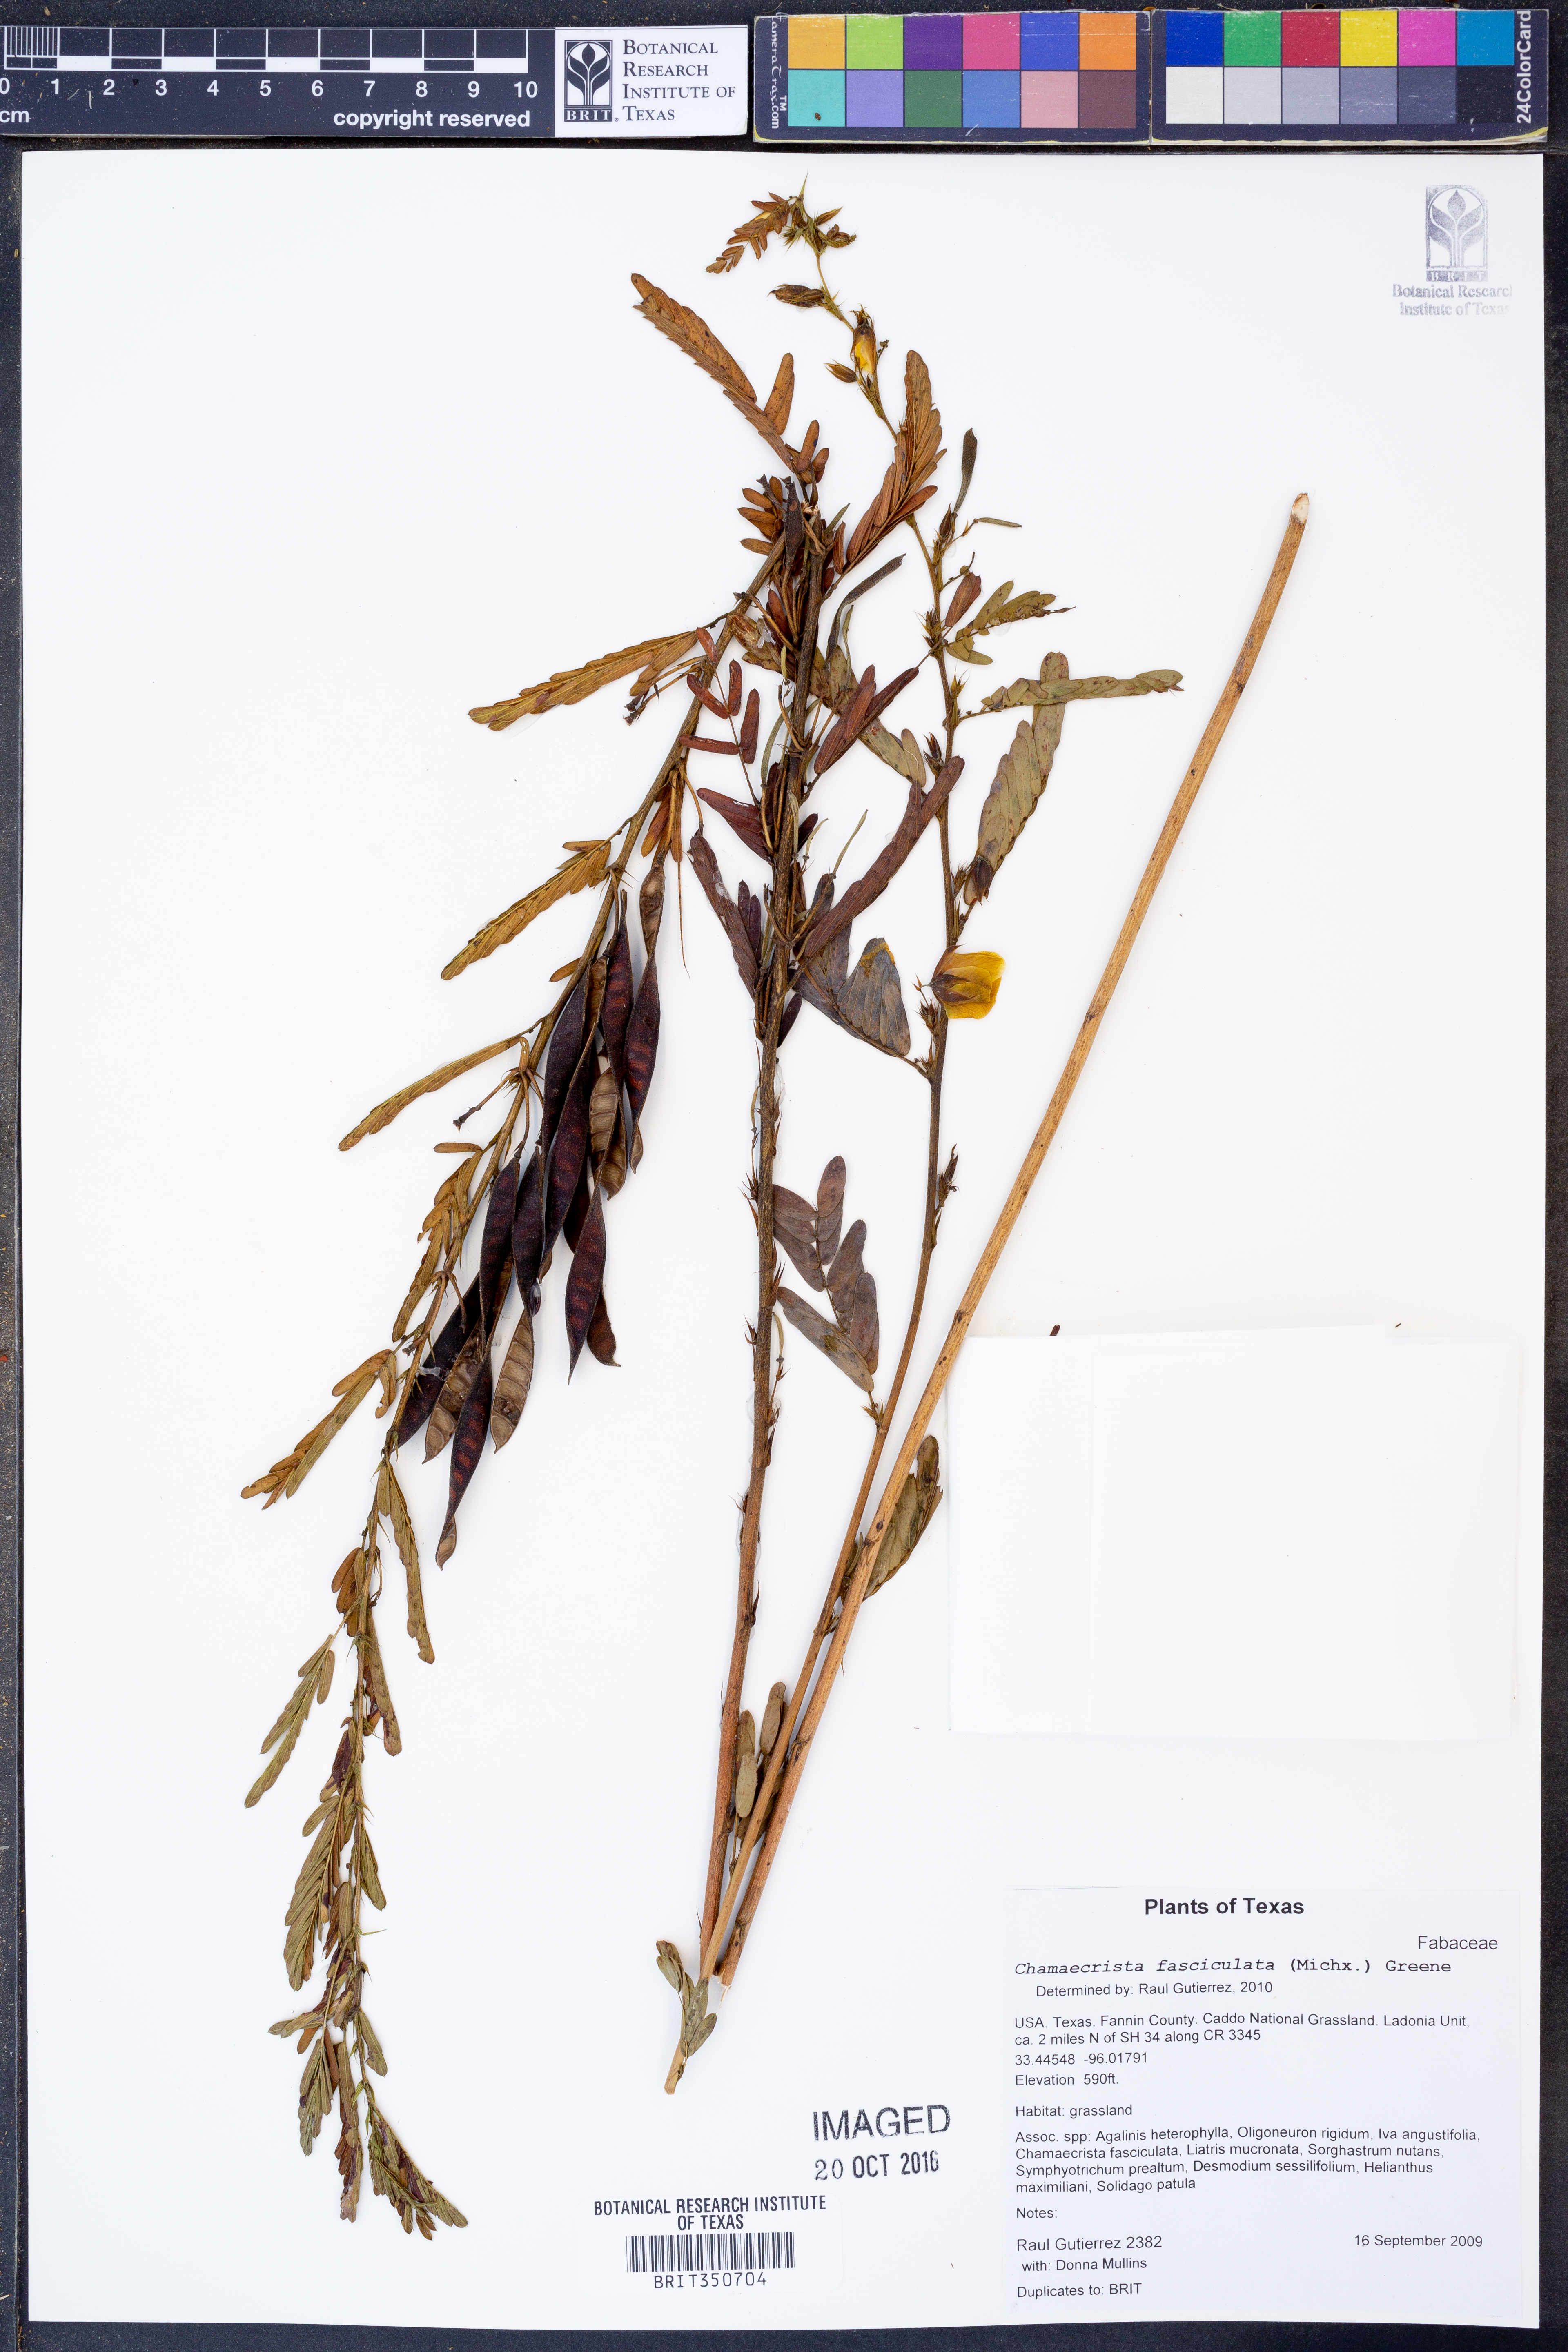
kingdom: Plantae
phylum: Tracheophyta
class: Magnoliopsida
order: Fabales
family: Fabaceae
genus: Chamaecrista
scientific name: Chamaecrista fasciculata
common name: Golden cassia
